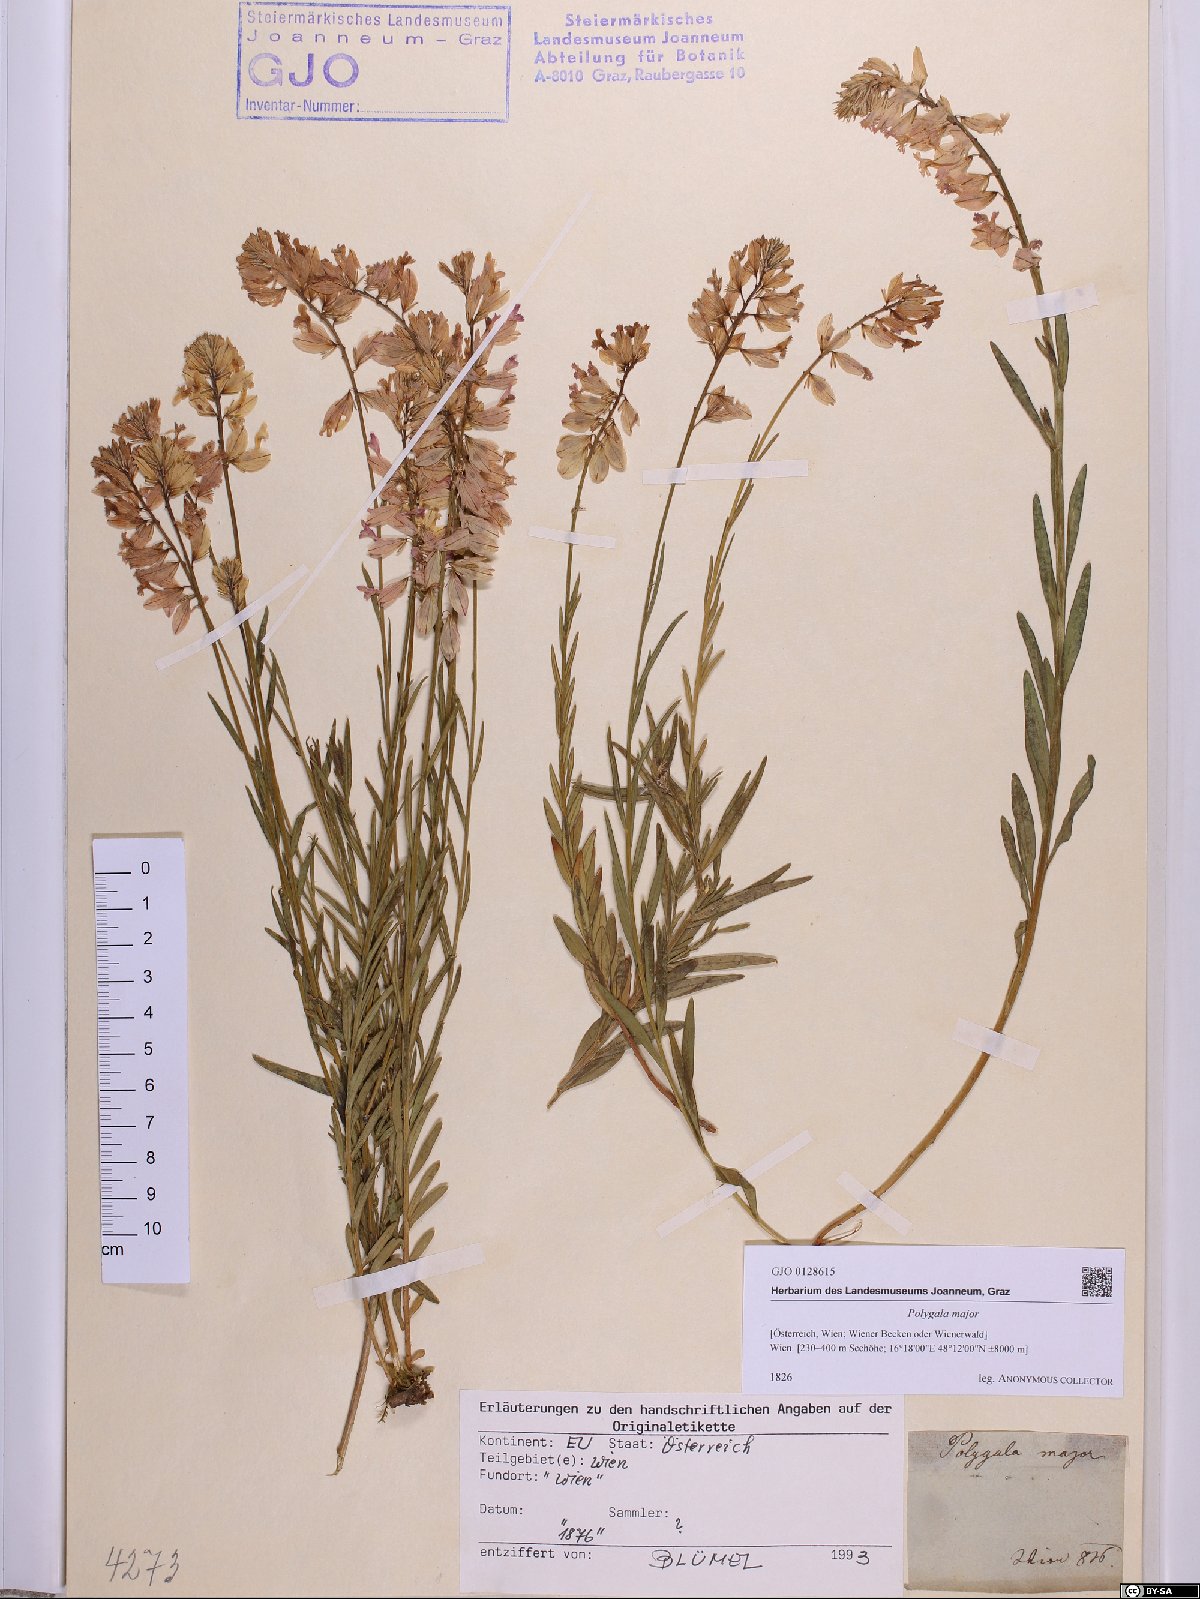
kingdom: Plantae
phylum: Tracheophyta
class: Magnoliopsida
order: Fabales
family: Polygalaceae
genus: Polygala
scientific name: Polygala major
